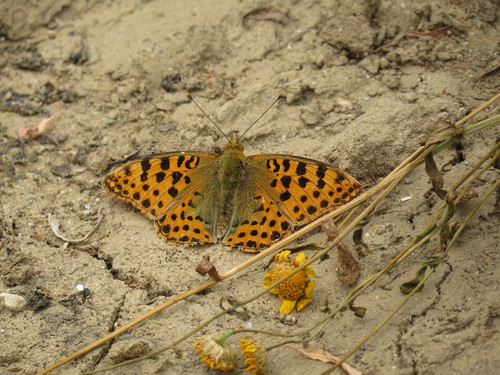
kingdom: Animalia
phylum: Arthropoda
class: Insecta
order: Lepidoptera
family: Nymphalidae
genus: Issoria
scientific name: Issoria lathonia
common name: Queen of spain fritillary
